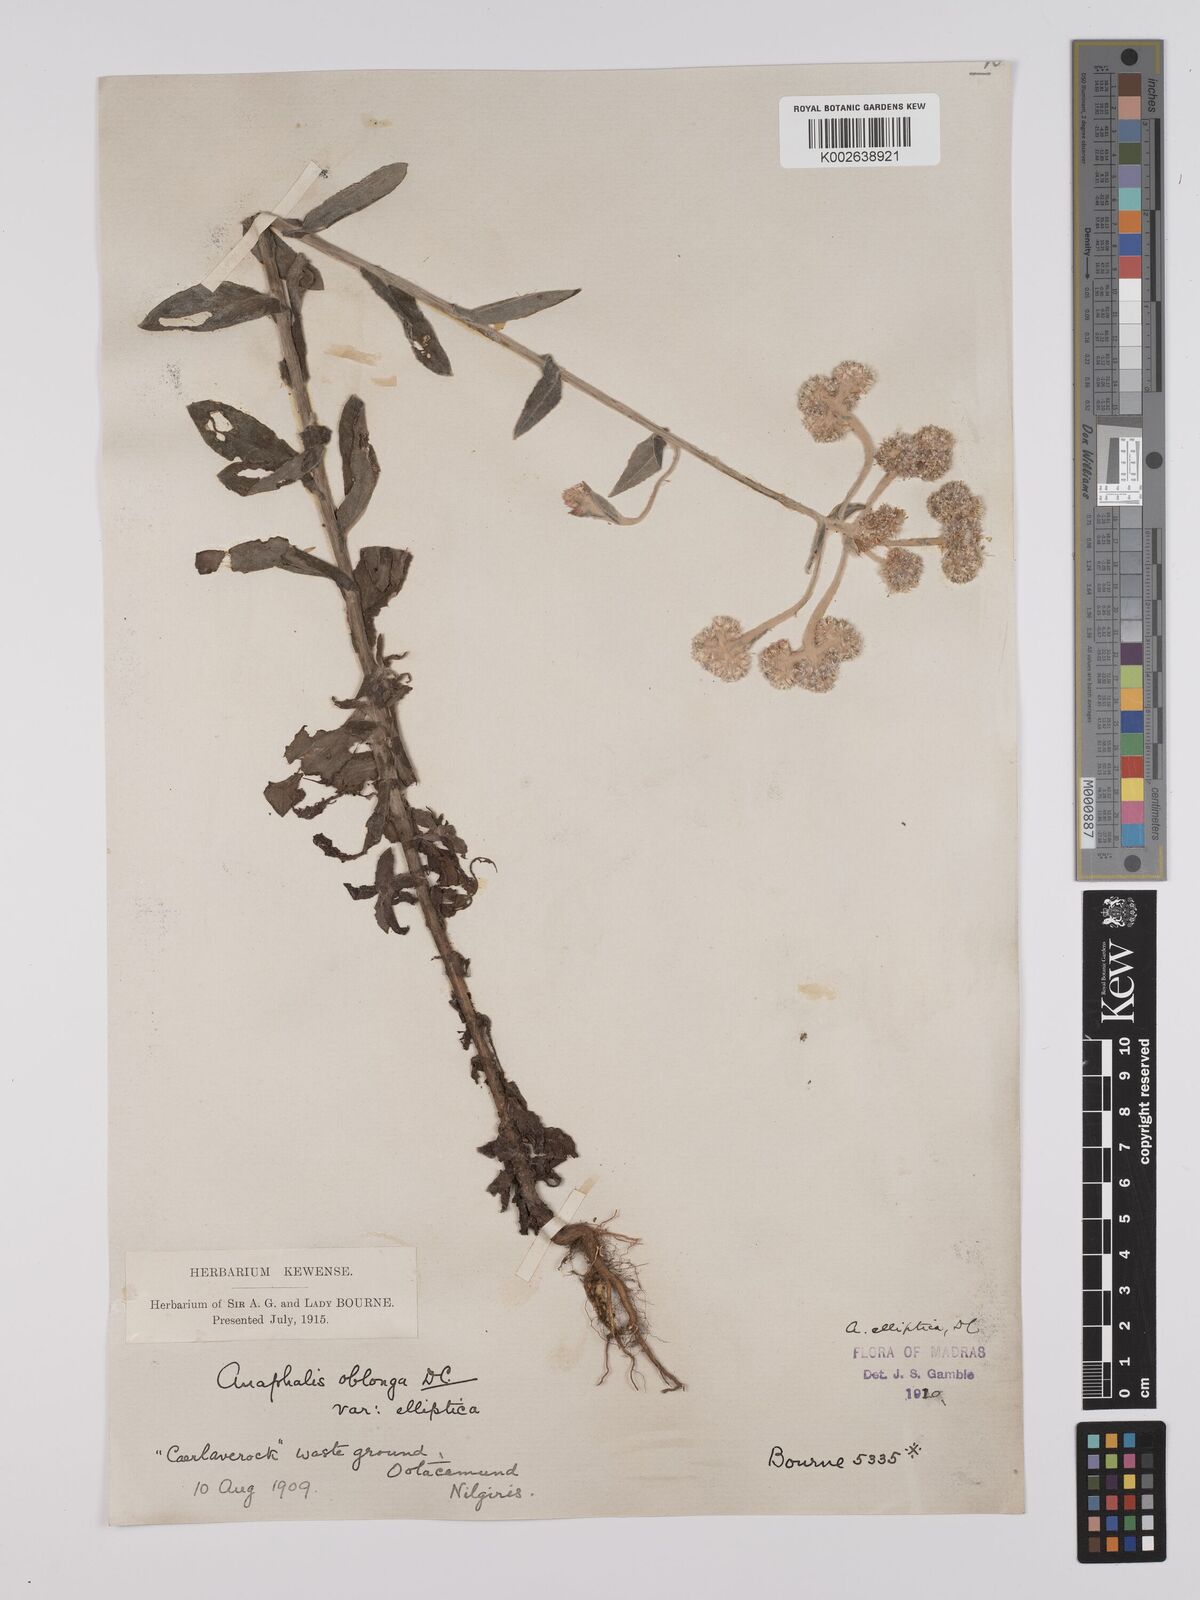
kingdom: Plantae
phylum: Tracheophyta
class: Magnoliopsida
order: Asterales
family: Asteraceae
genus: Anaphalis
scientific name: Anaphalis elliptica
